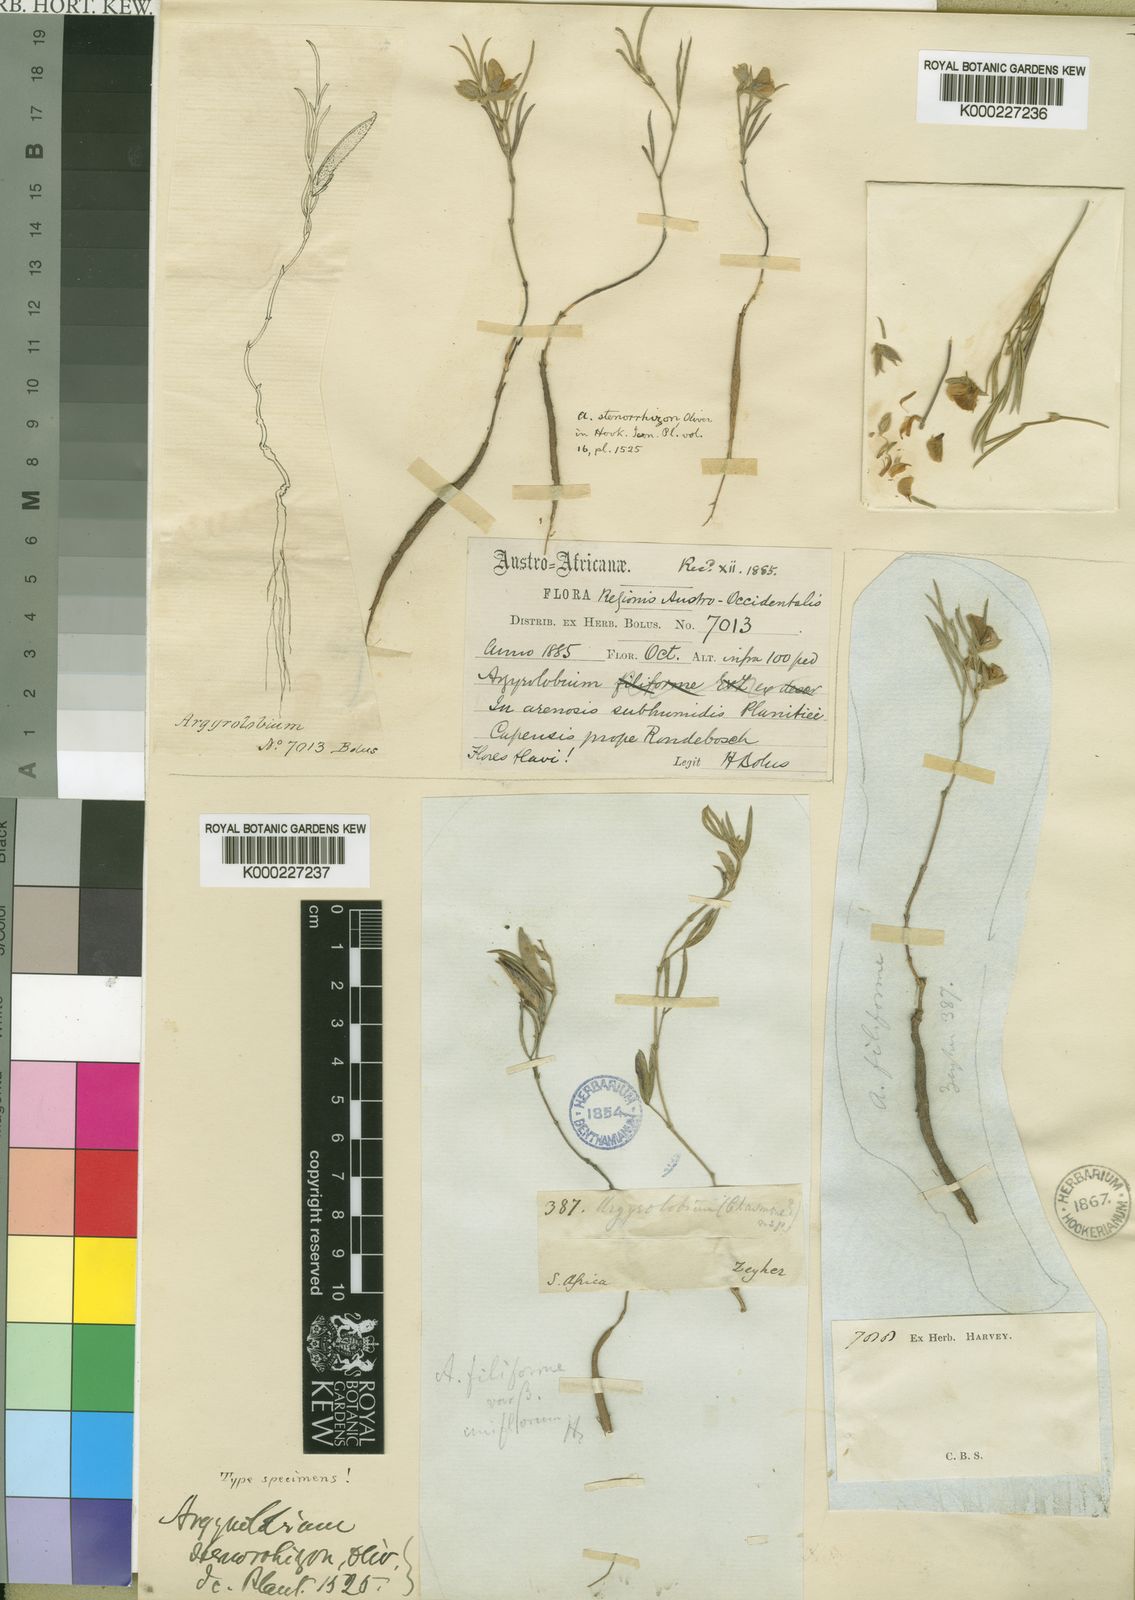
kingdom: Plantae
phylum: Tracheophyta
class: Magnoliopsida
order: Fabales
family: Fabaceae
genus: Argyrolobium
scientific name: Argyrolobium filifolia
